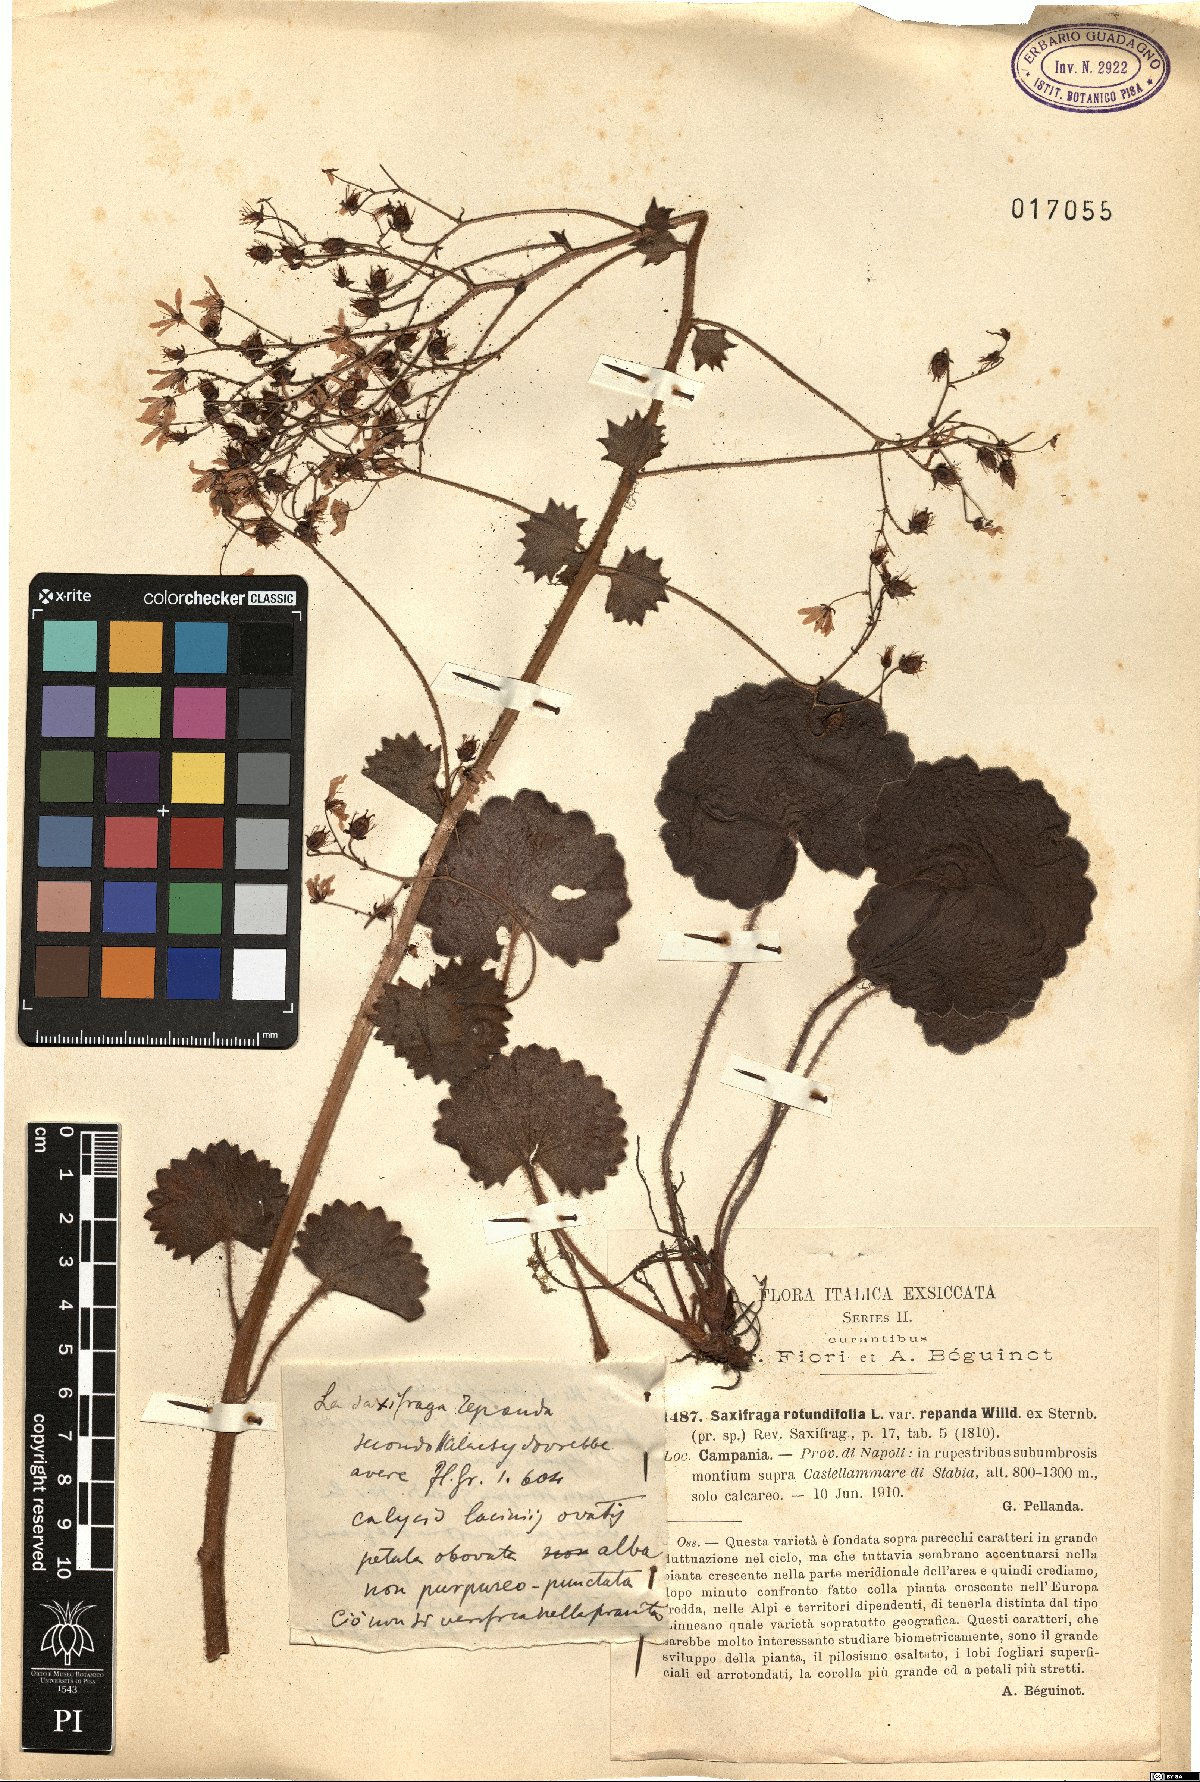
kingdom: Plantae
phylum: Tracheophyta
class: Magnoliopsida
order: Saxifragales
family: Saxifragaceae
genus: Saxifraga
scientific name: Saxifraga rotundifolia
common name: Round-leaved saxifrage
